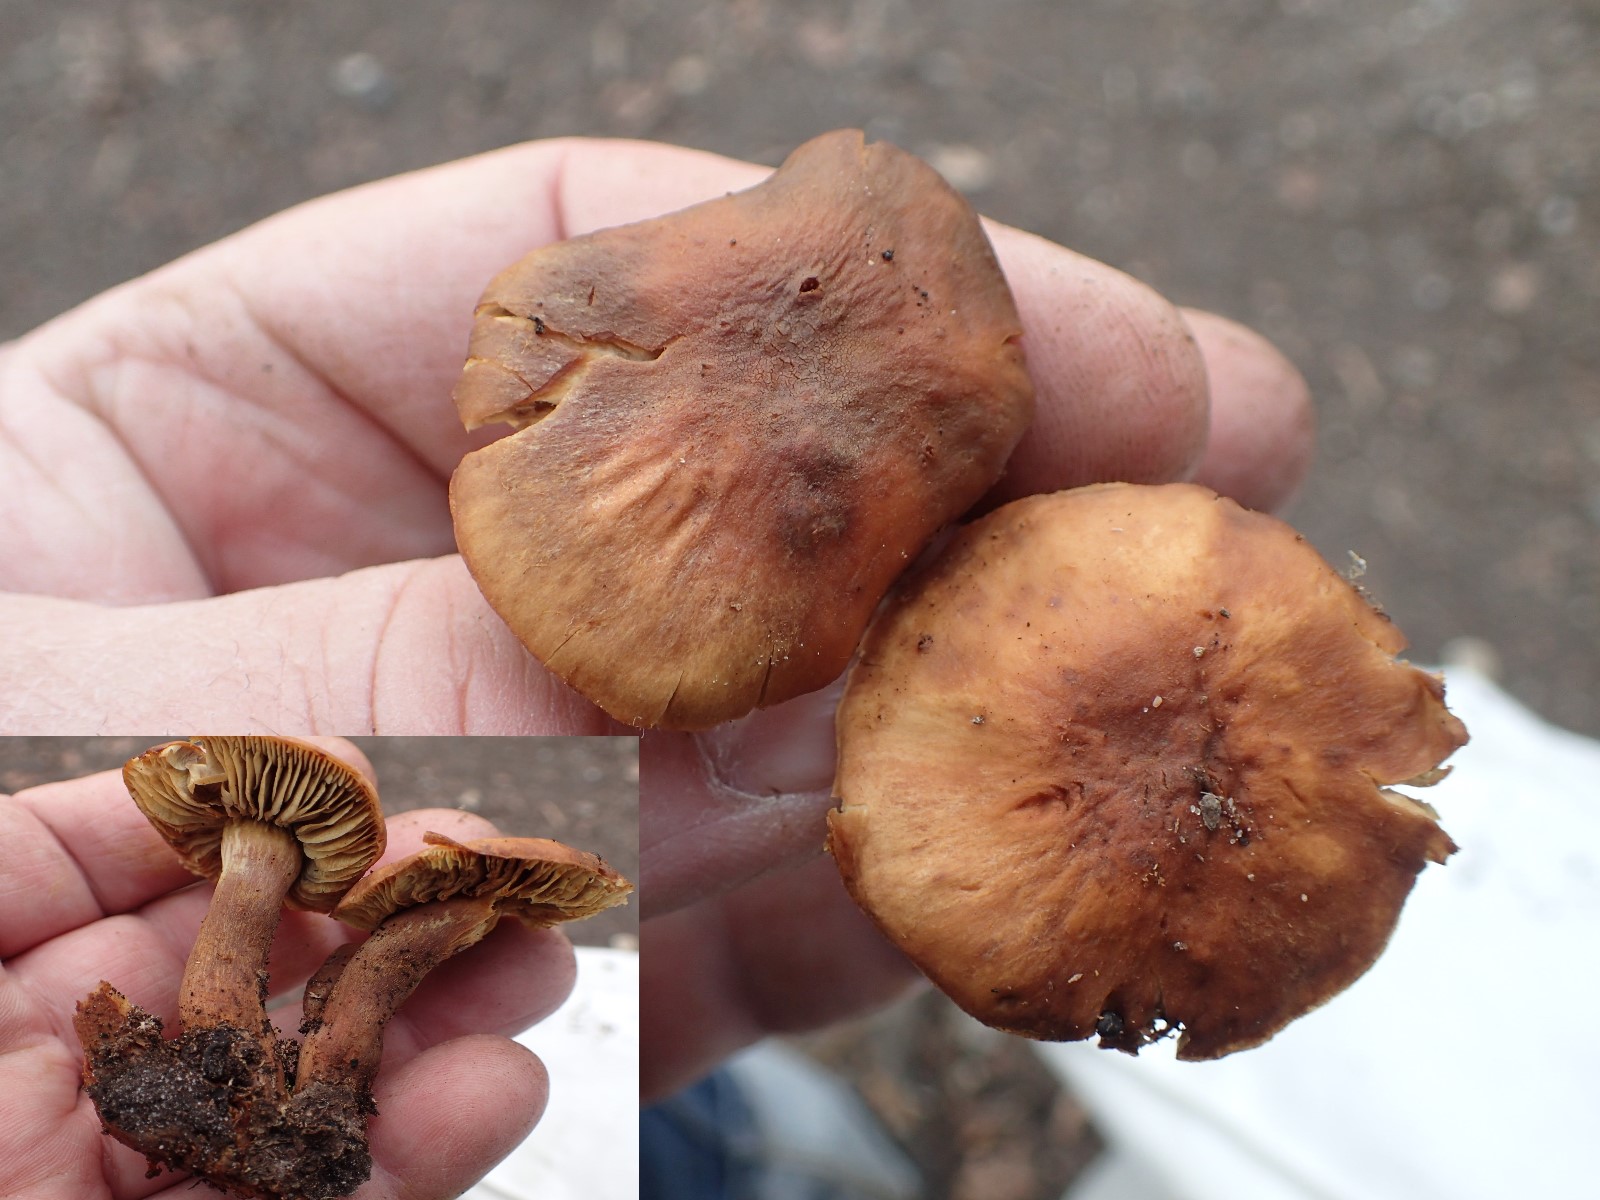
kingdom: Fungi
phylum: Basidiomycota
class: Agaricomycetes
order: Agaricales
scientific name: Agaricales
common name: champignonordenen
